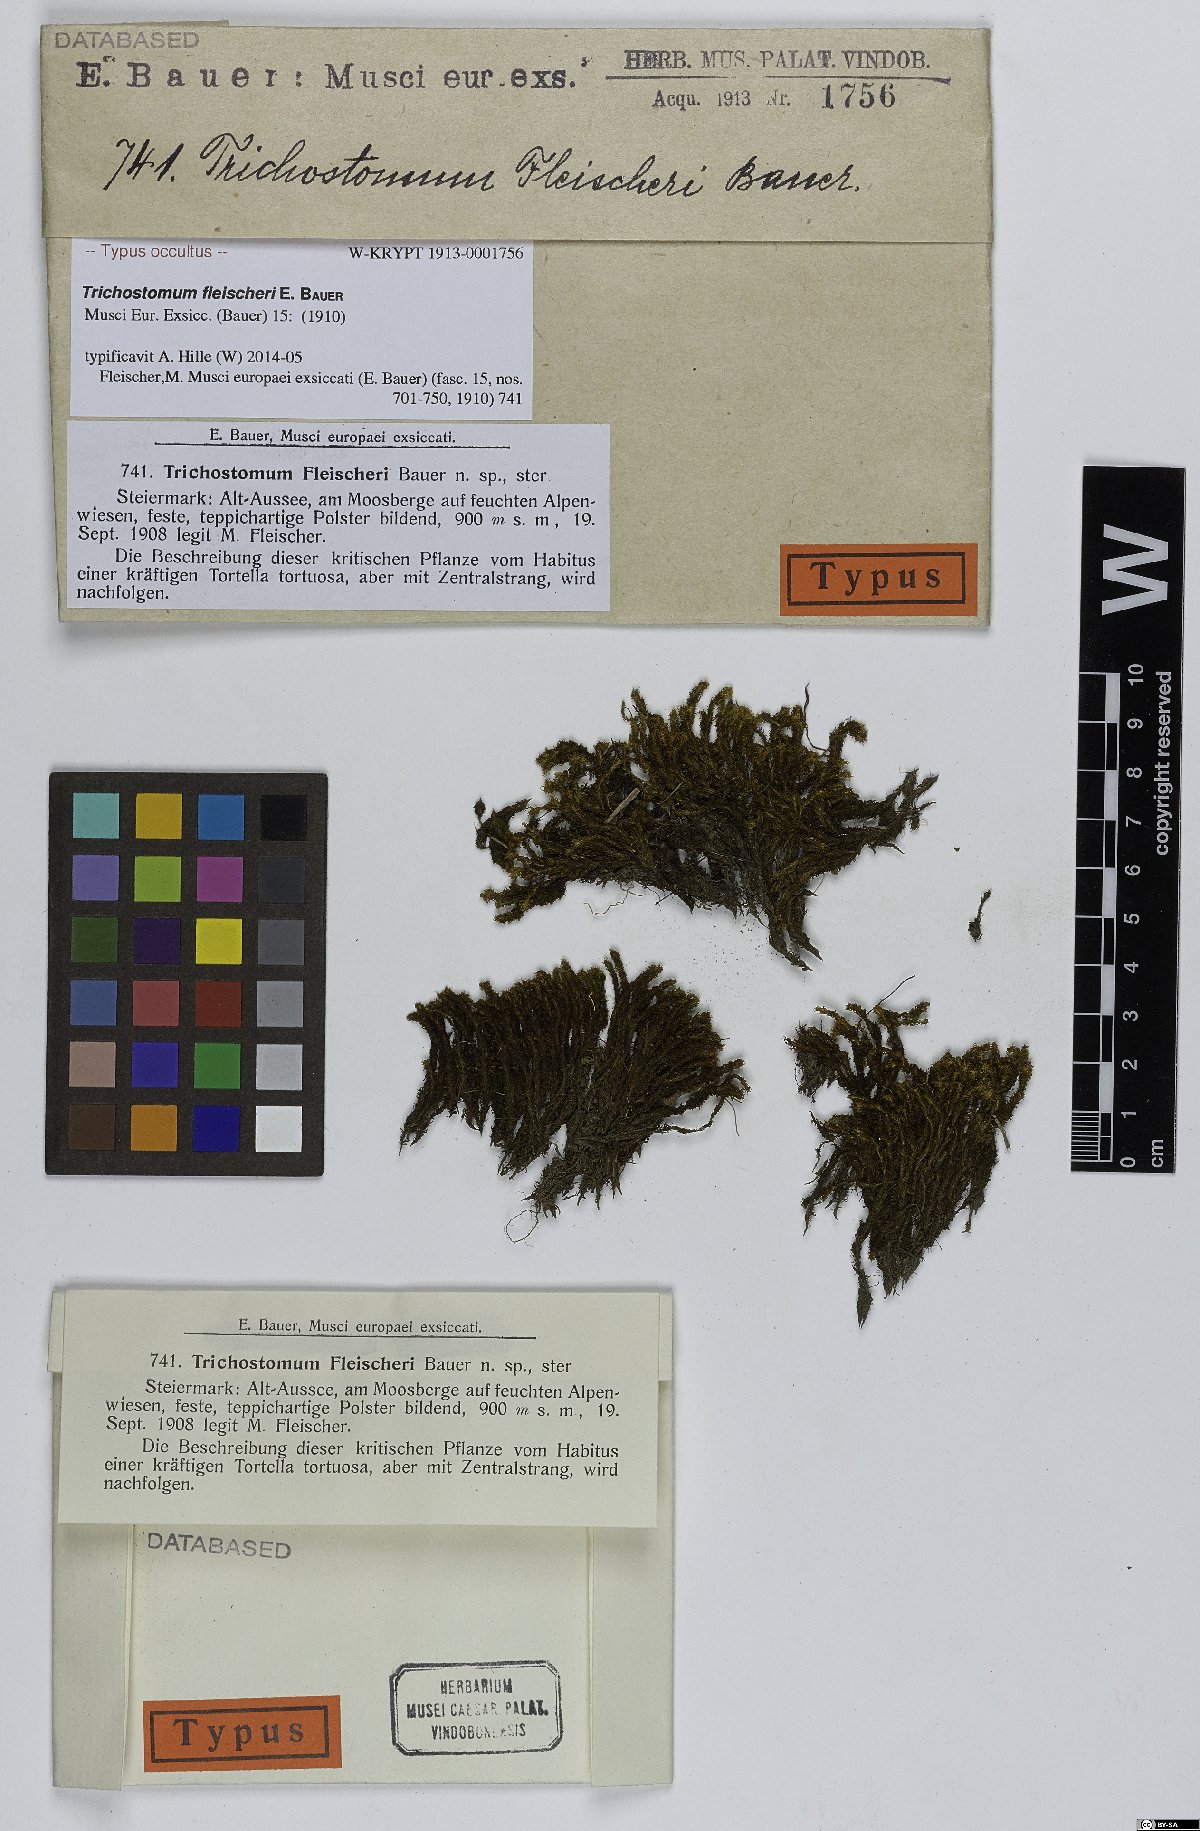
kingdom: Plantae
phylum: Bryophyta
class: Bryopsida
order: Pottiales
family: Pottiaceae
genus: Tortella
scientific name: Tortella tortuosa
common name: Frizzled crisp moss
